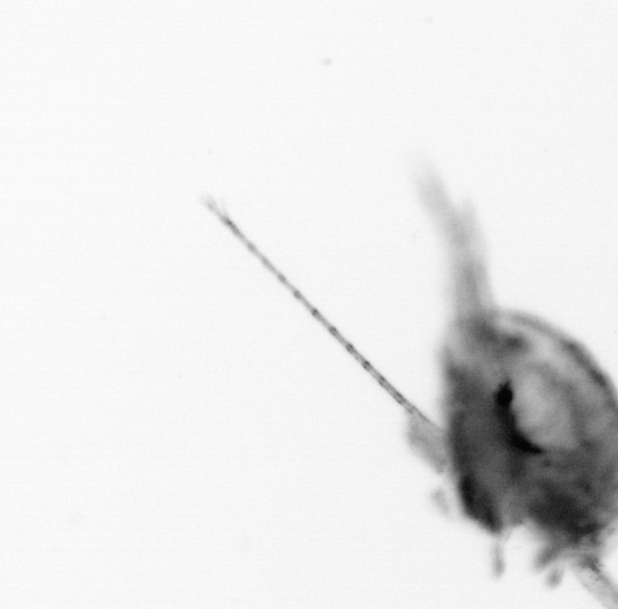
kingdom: Animalia
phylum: Arthropoda
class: Copepoda
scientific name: Copepoda
